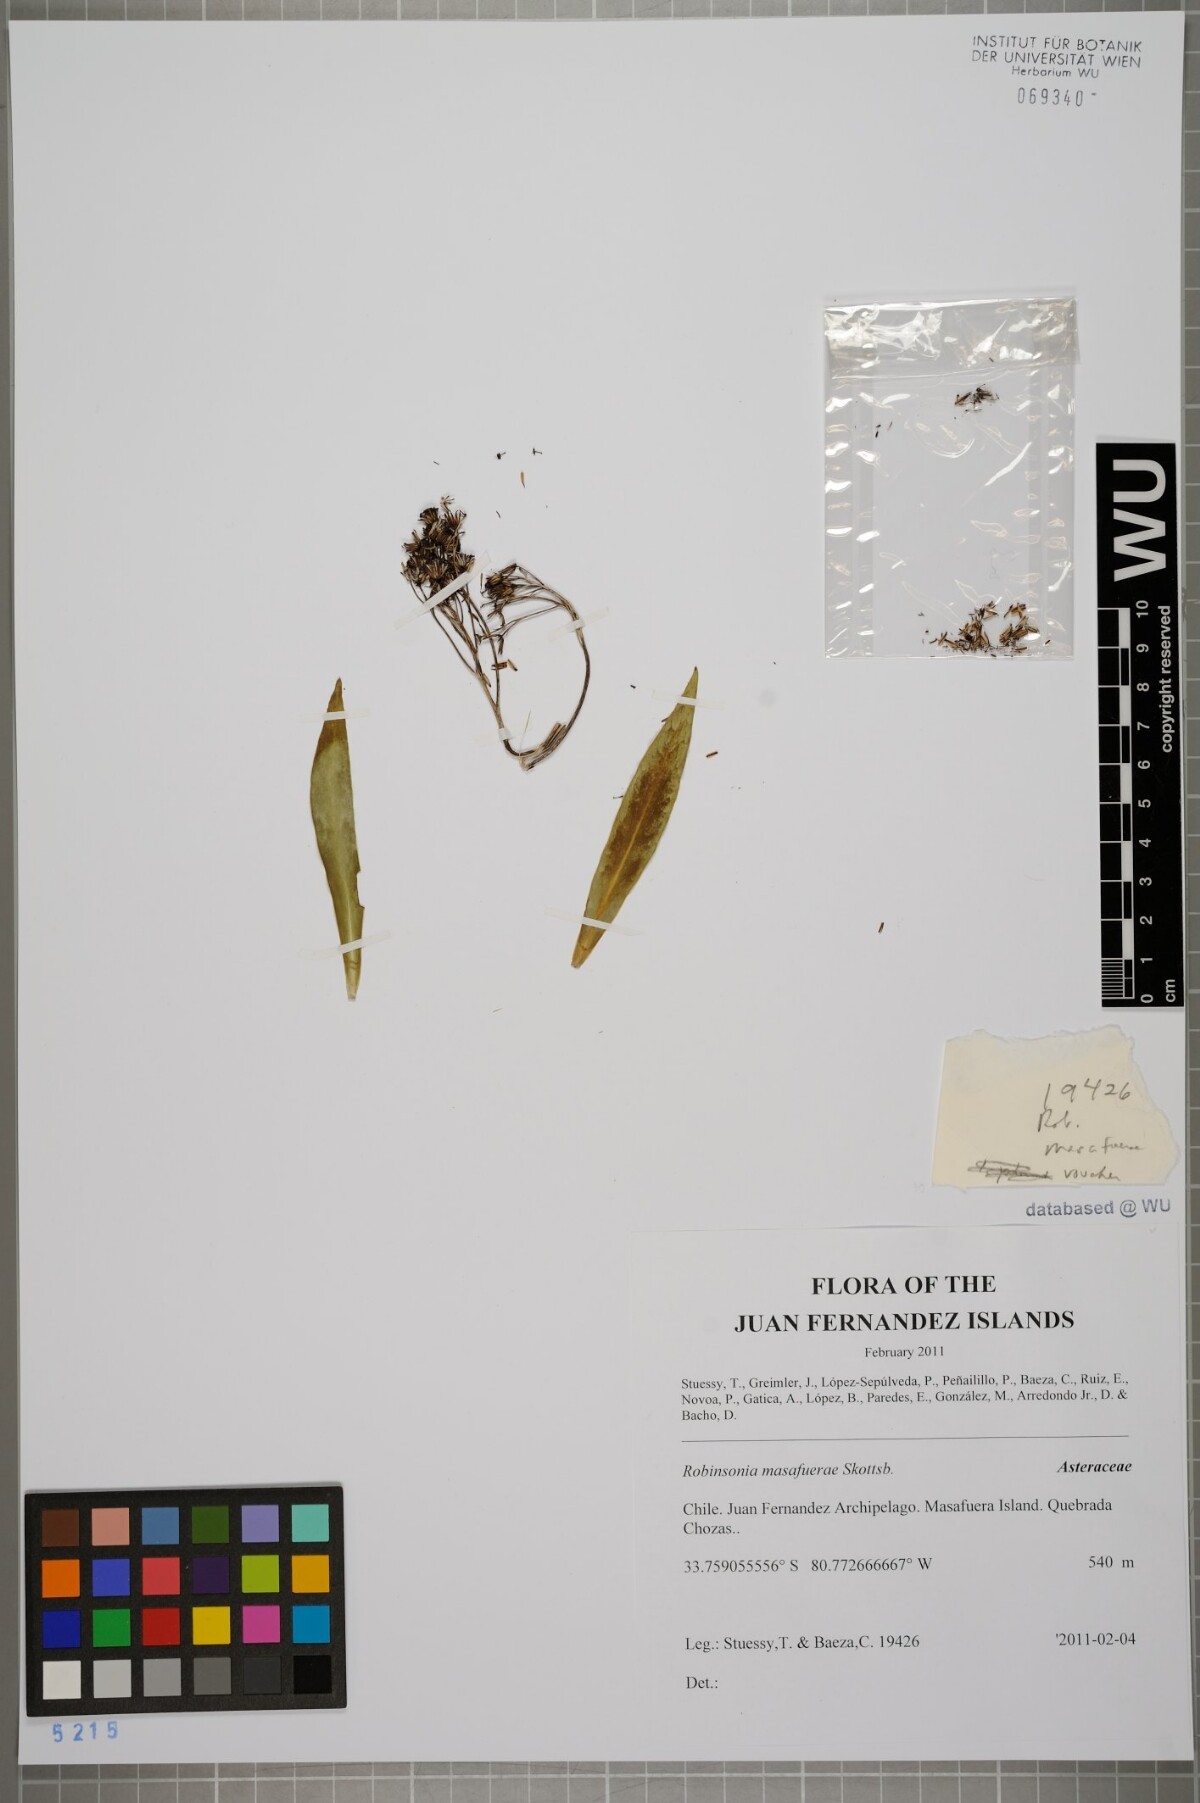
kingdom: Plantae
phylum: Tracheophyta
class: Magnoliopsida
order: Asterales
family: Asteraceae
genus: Robinsonia
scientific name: Robinsonia masafuerae
